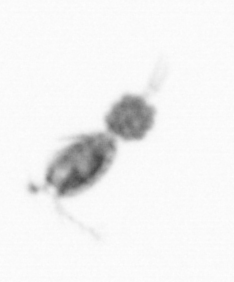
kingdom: Animalia
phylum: Arthropoda
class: Copepoda
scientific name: Copepoda
